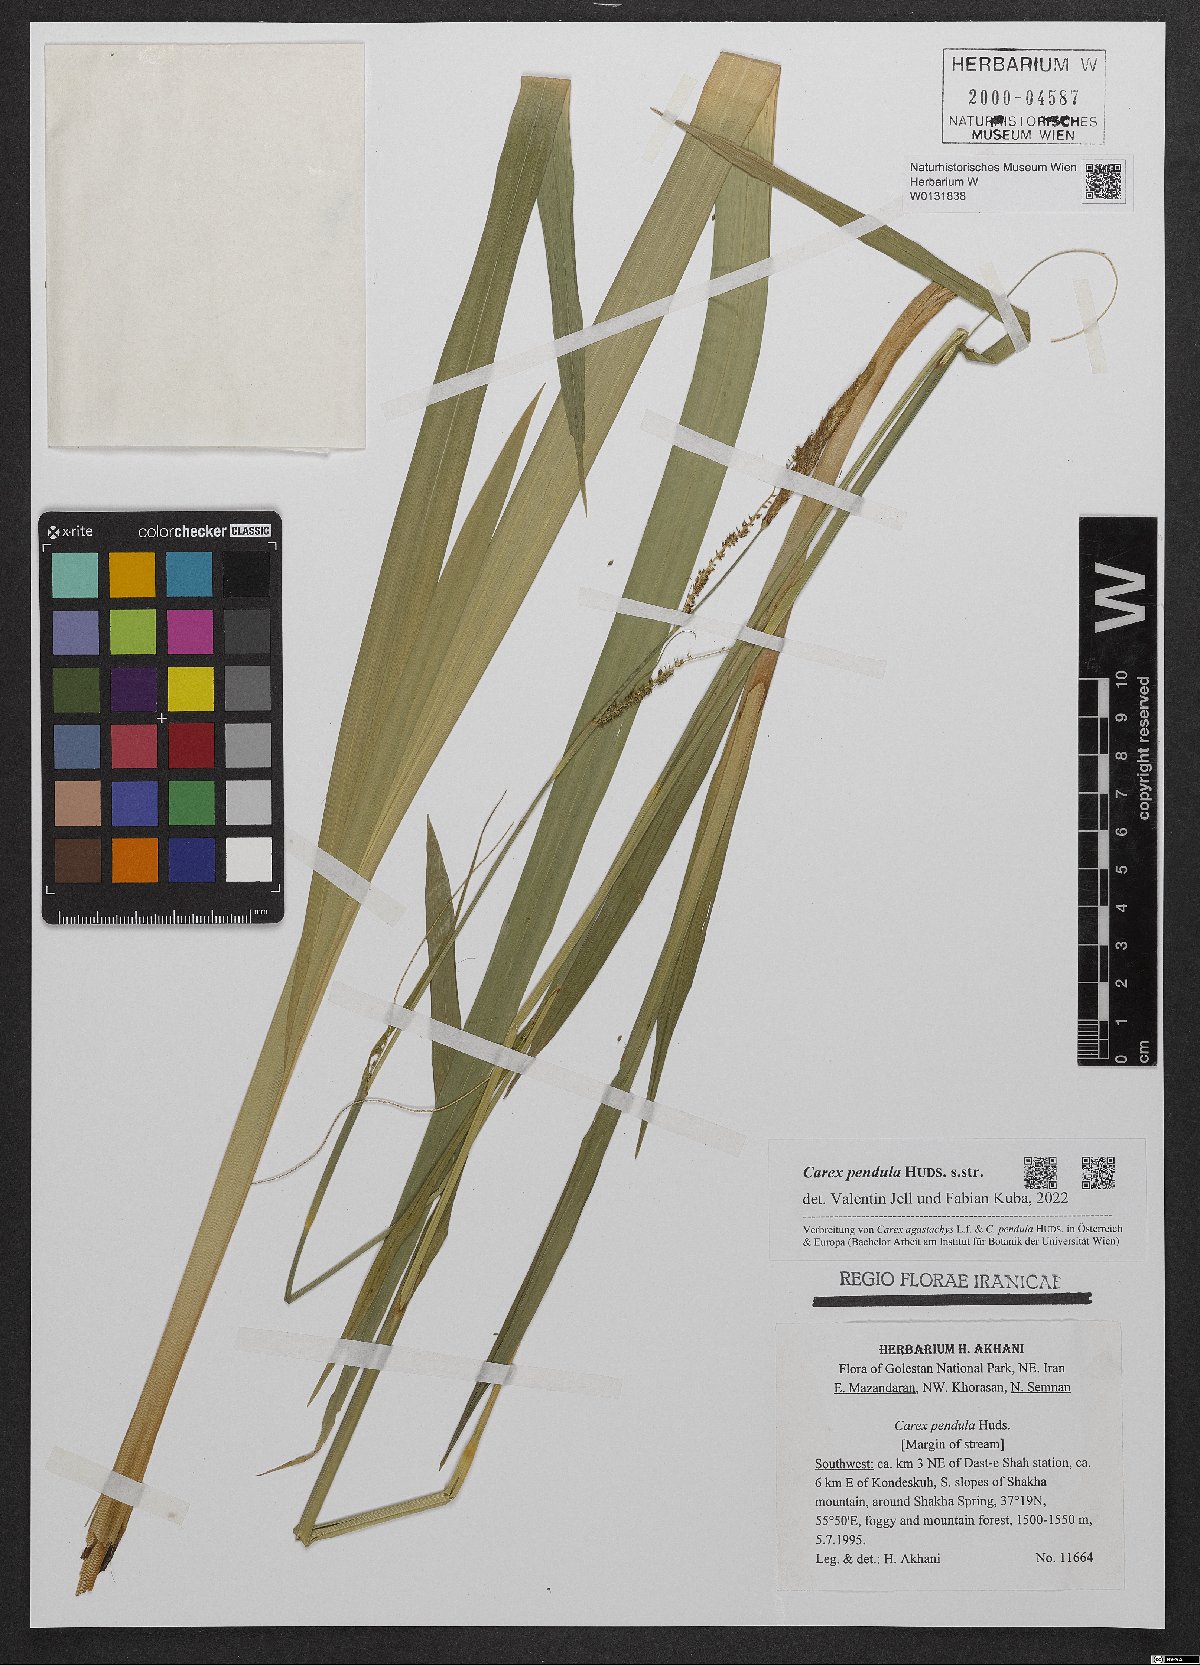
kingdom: Plantae
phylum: Tracheophyta
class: Liliopsida
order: Poales
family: Cyperaceae
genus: Carex
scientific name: Carex pendula
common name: Pendulous sedge
